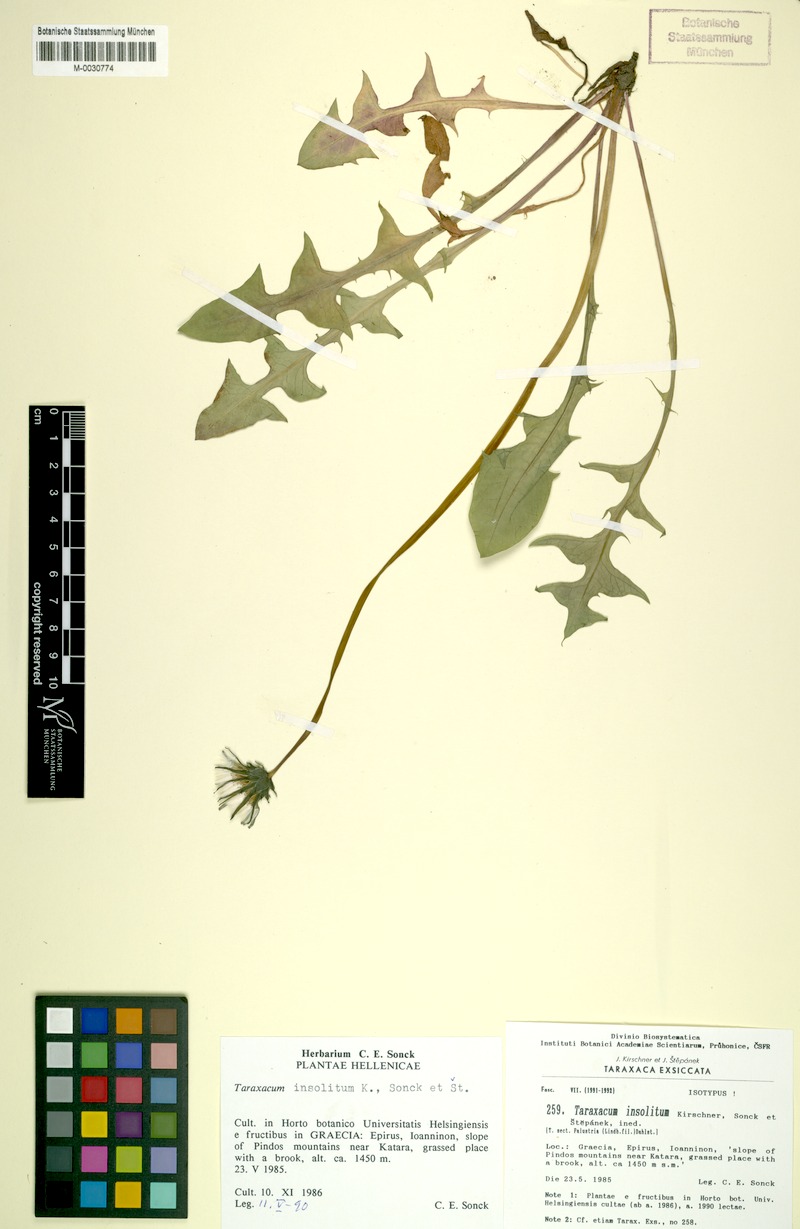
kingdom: Plantae
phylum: Tracheophyta
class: Magnoliopsida
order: Asterales
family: Asteraceae
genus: Taraxacum
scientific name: Taraxacum insolitum
